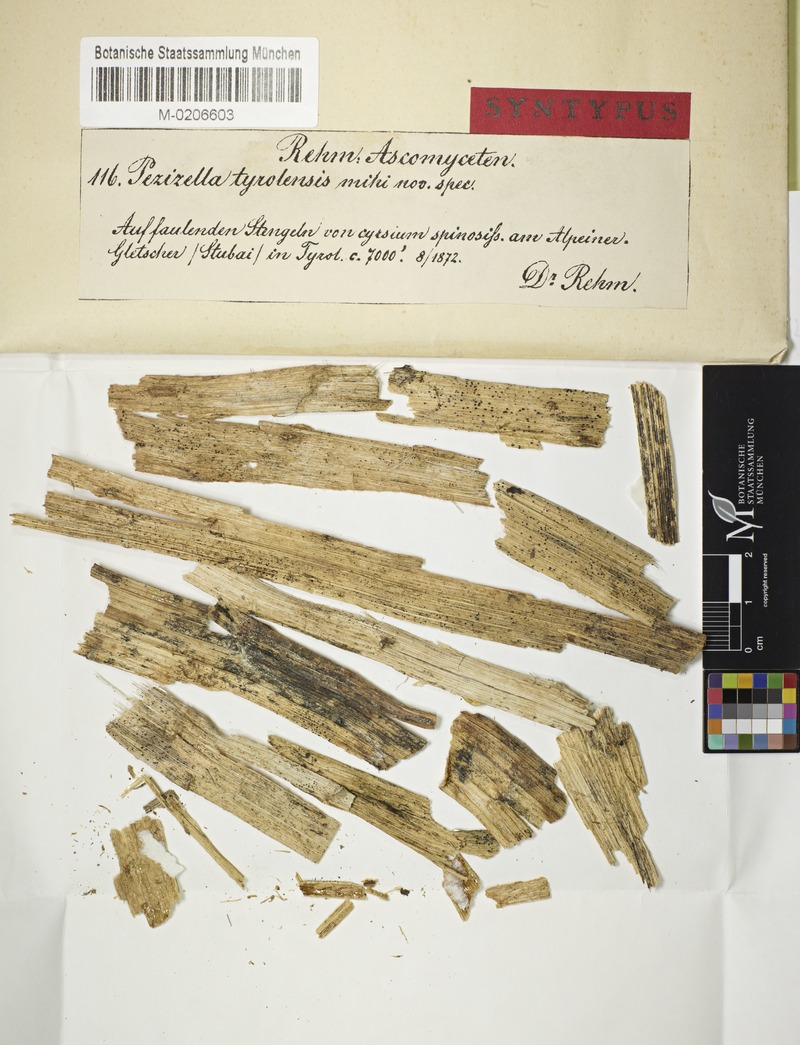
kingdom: Fungi
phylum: Ascomycota
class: Leotiomycetes
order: Helotiales
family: Hyaloscyphaceae
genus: Olla
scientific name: Olla tirolensis
